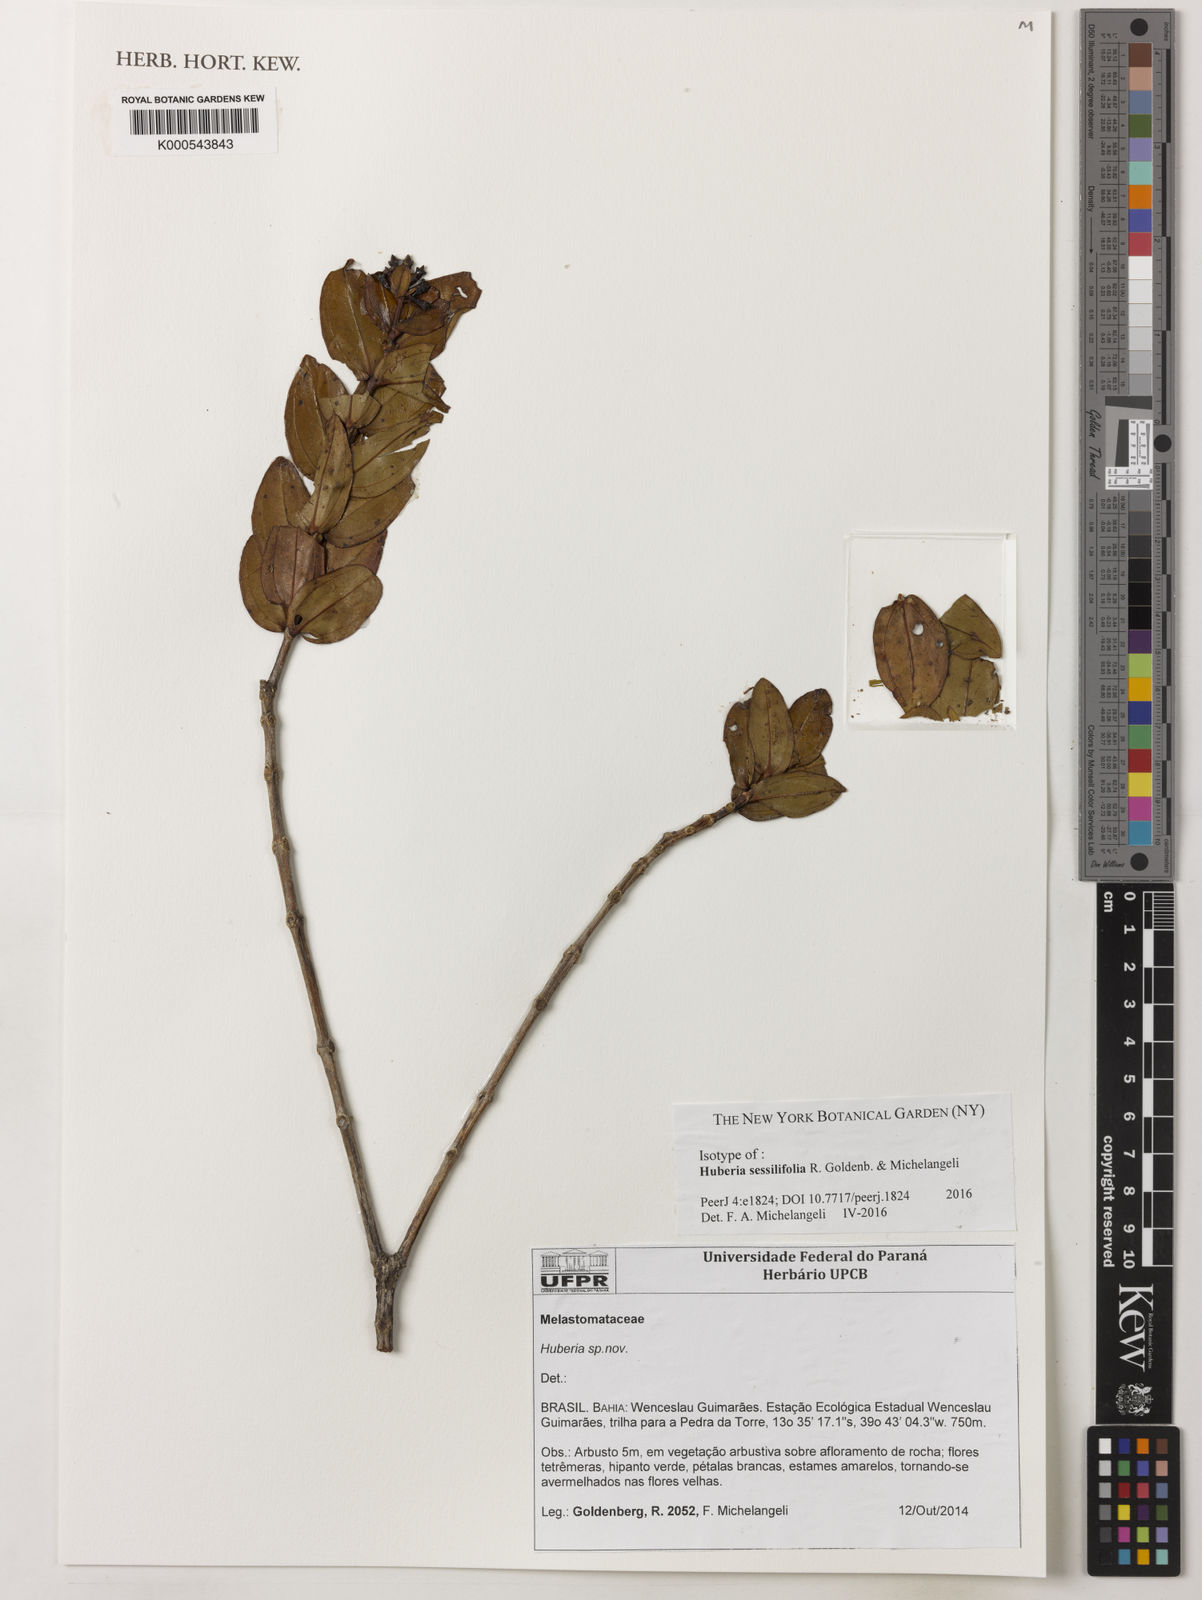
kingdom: Plantae
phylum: Tracheophyta
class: Magnoliopsida
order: Myrtales
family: Melastomataceae
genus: Huberia
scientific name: Huberia sessilifolia
